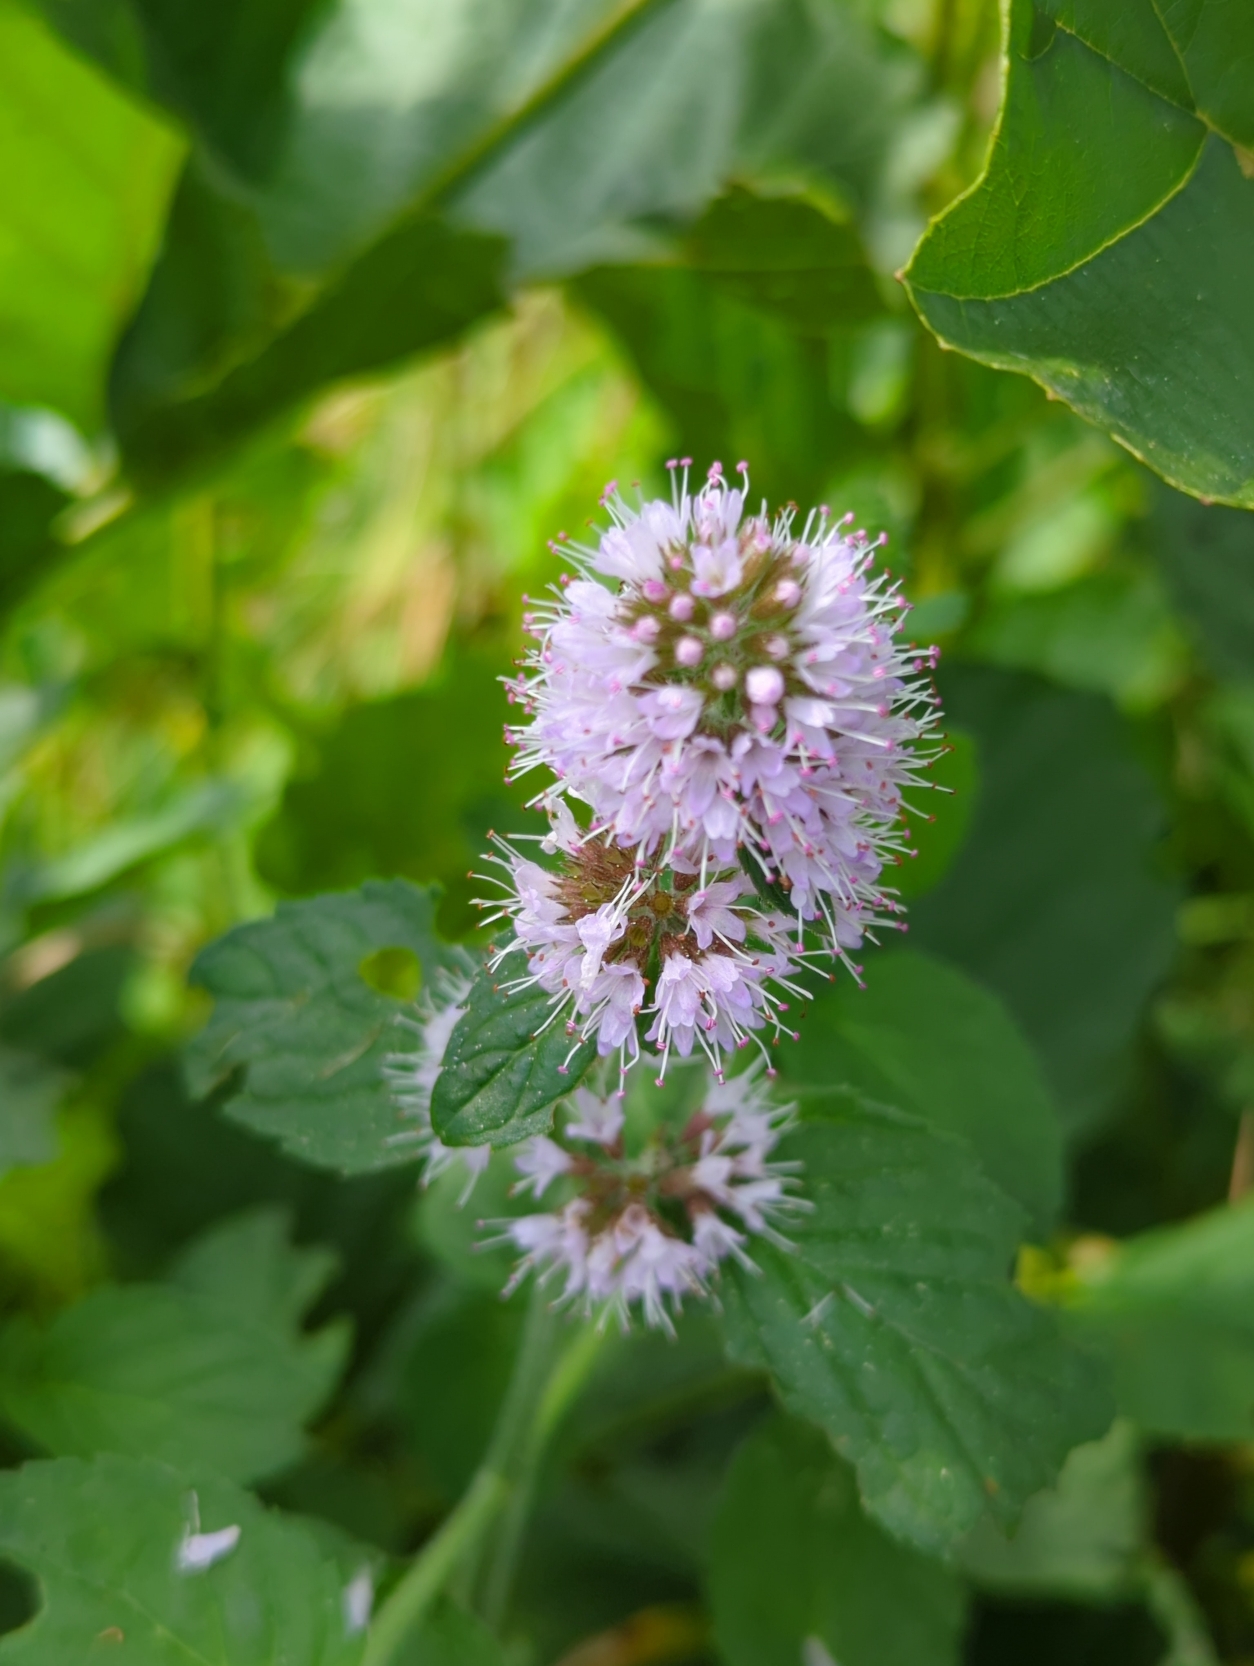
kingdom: Plantae
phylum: Tracheophyta
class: Magnoliopsida
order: Lamiales
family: Lamiaceae
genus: Mentha
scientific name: Mentha aquatica
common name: Vand-mynte
